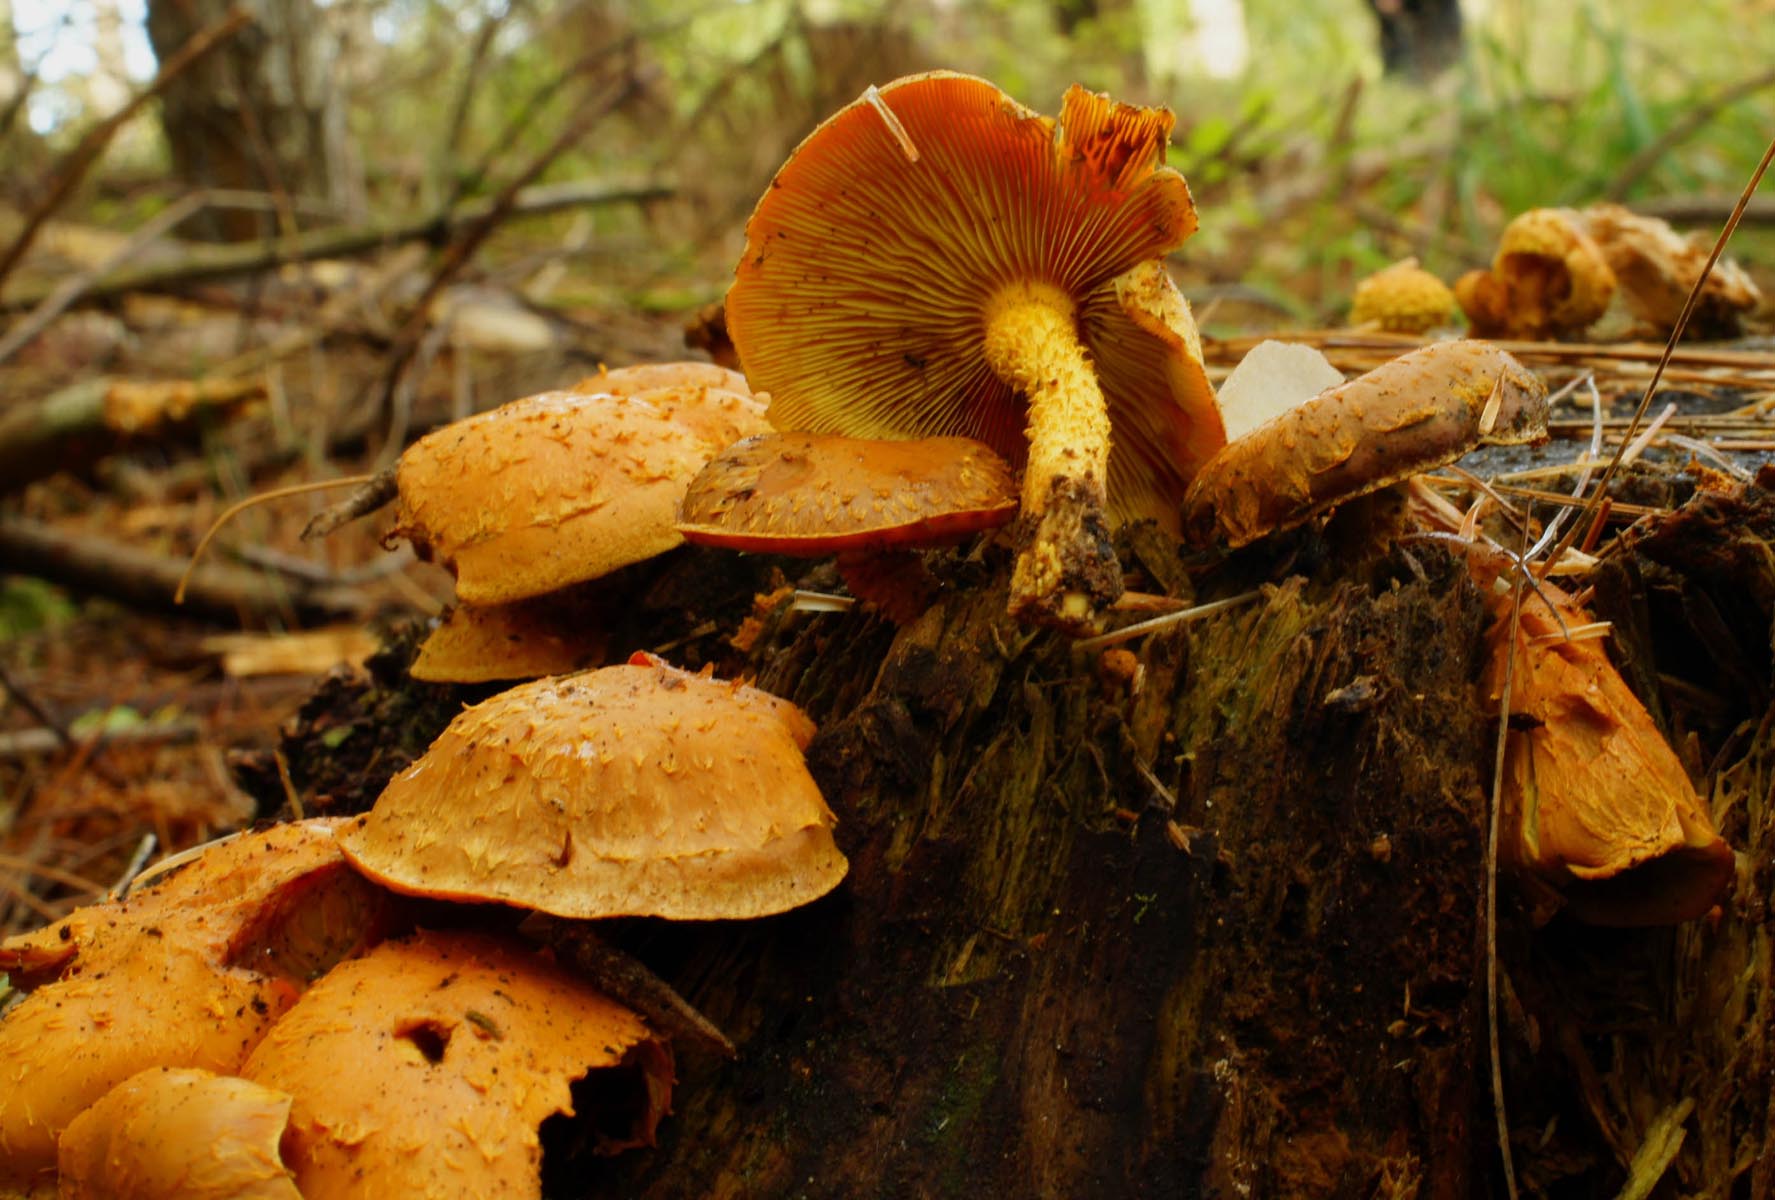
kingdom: Fungi
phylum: Basidiomycota
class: Agaricomycetes
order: Agaricales
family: Strophariaceae
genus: Pholiota
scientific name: Pholiota flammans
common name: flamme-skælhat
